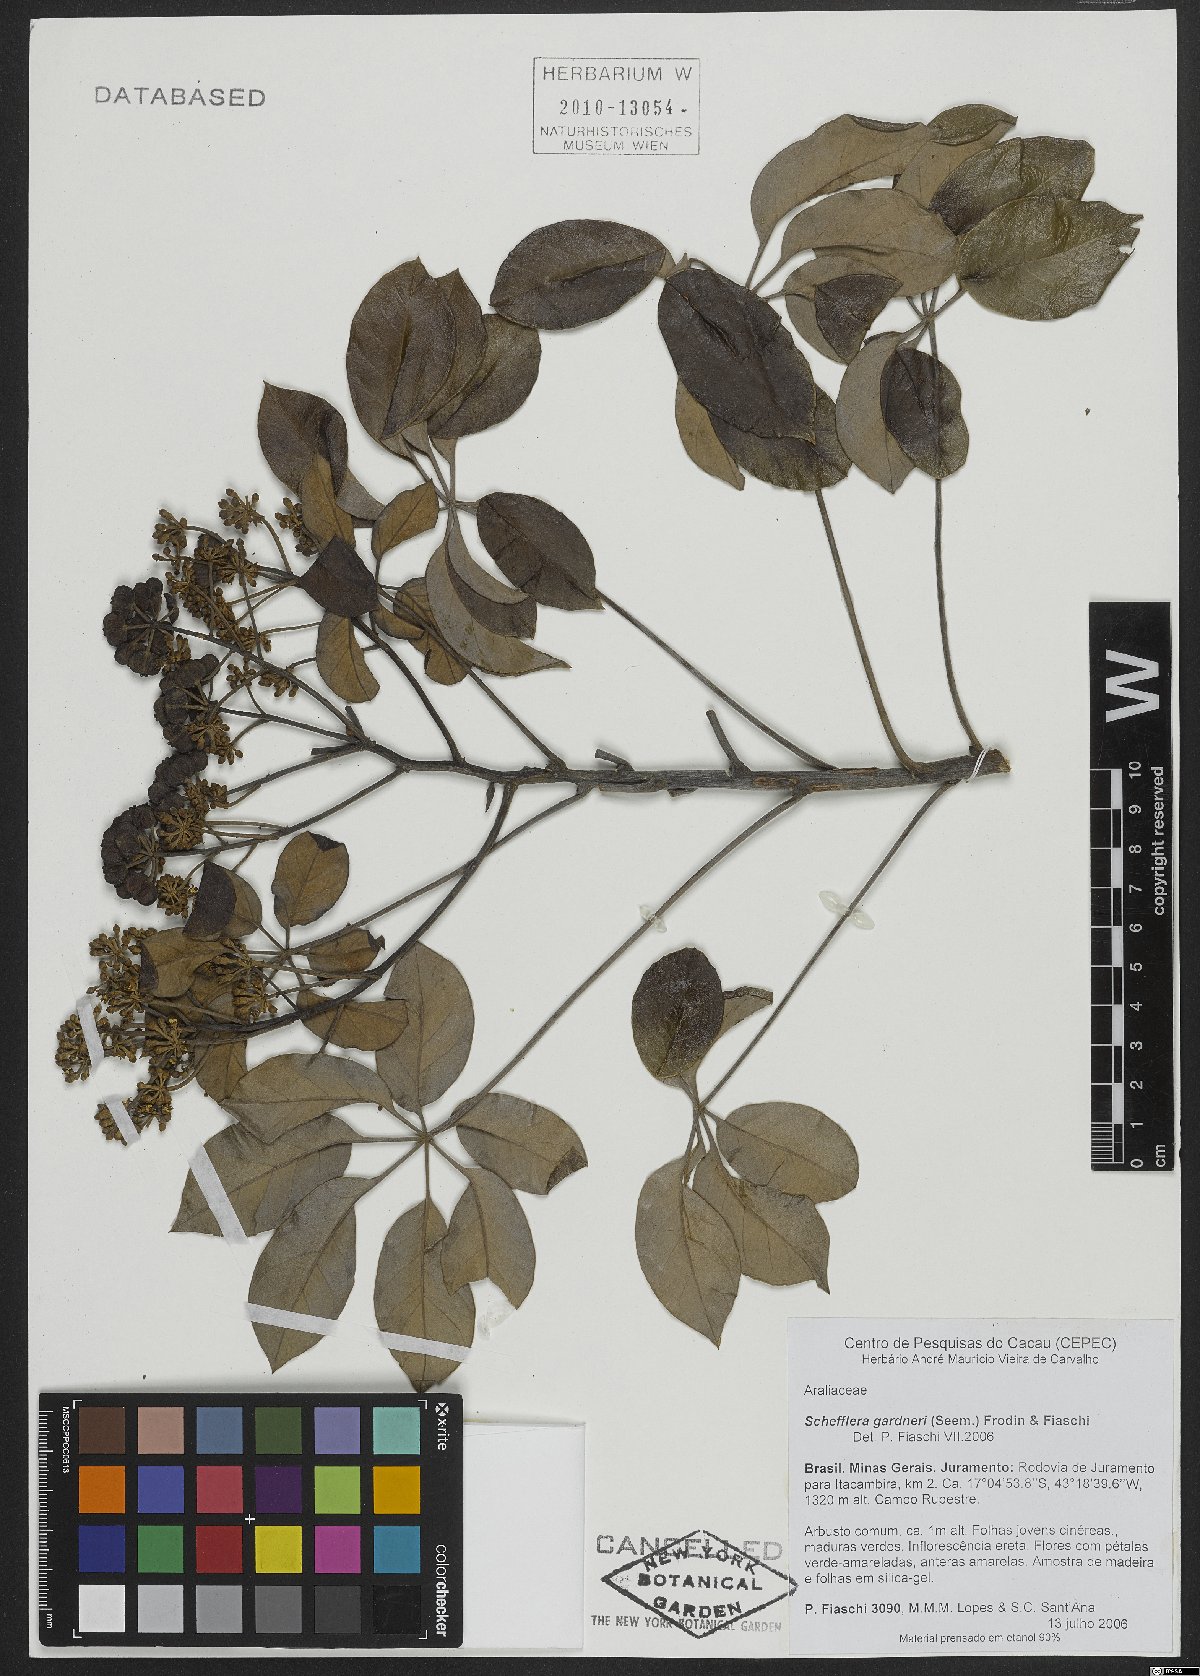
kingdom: Plantae
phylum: Tracheophyta
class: Magnoliopsida
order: Apiales
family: Araliaceae
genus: Didymopanax
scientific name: Didymopanax gardneri
